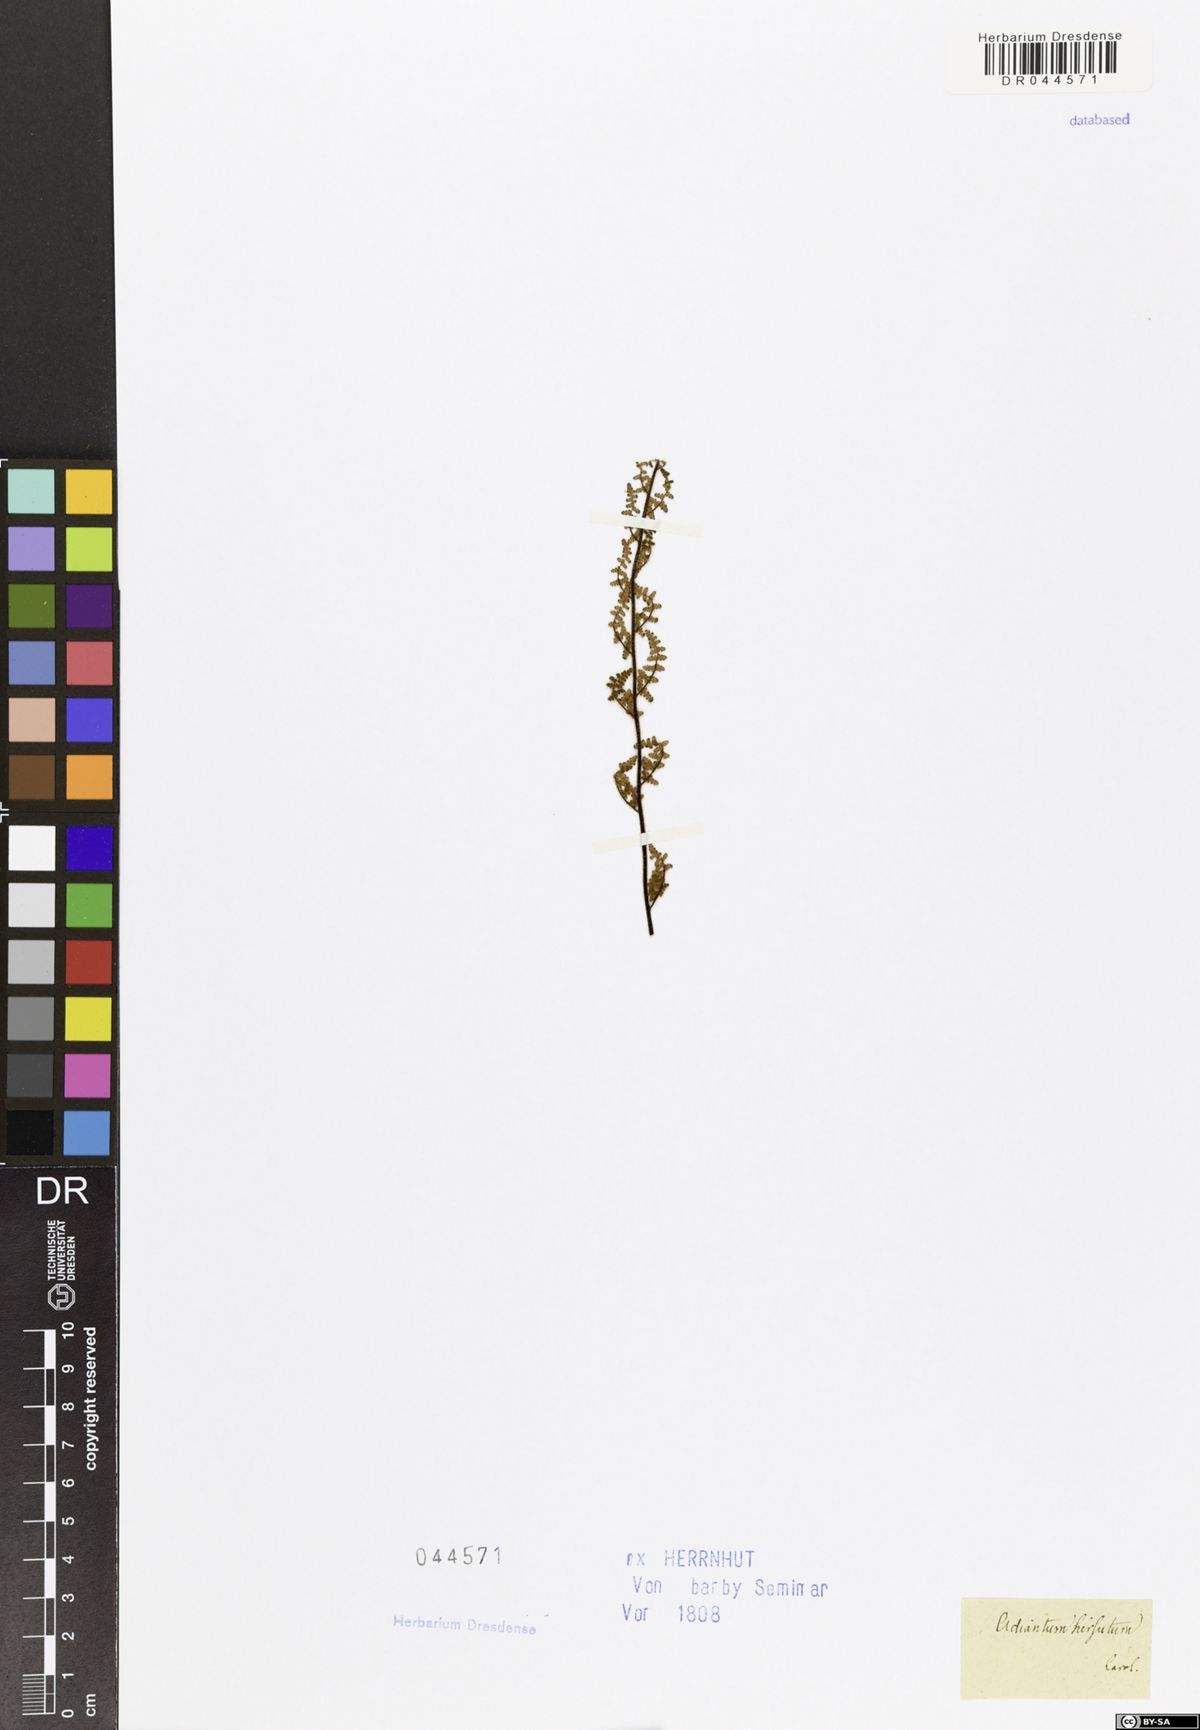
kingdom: Plantae
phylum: Tracheophyta
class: Polypodiopsida
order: Polypodiales
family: Pteridaceae
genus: Cheilanthes
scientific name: Cheilanthes
